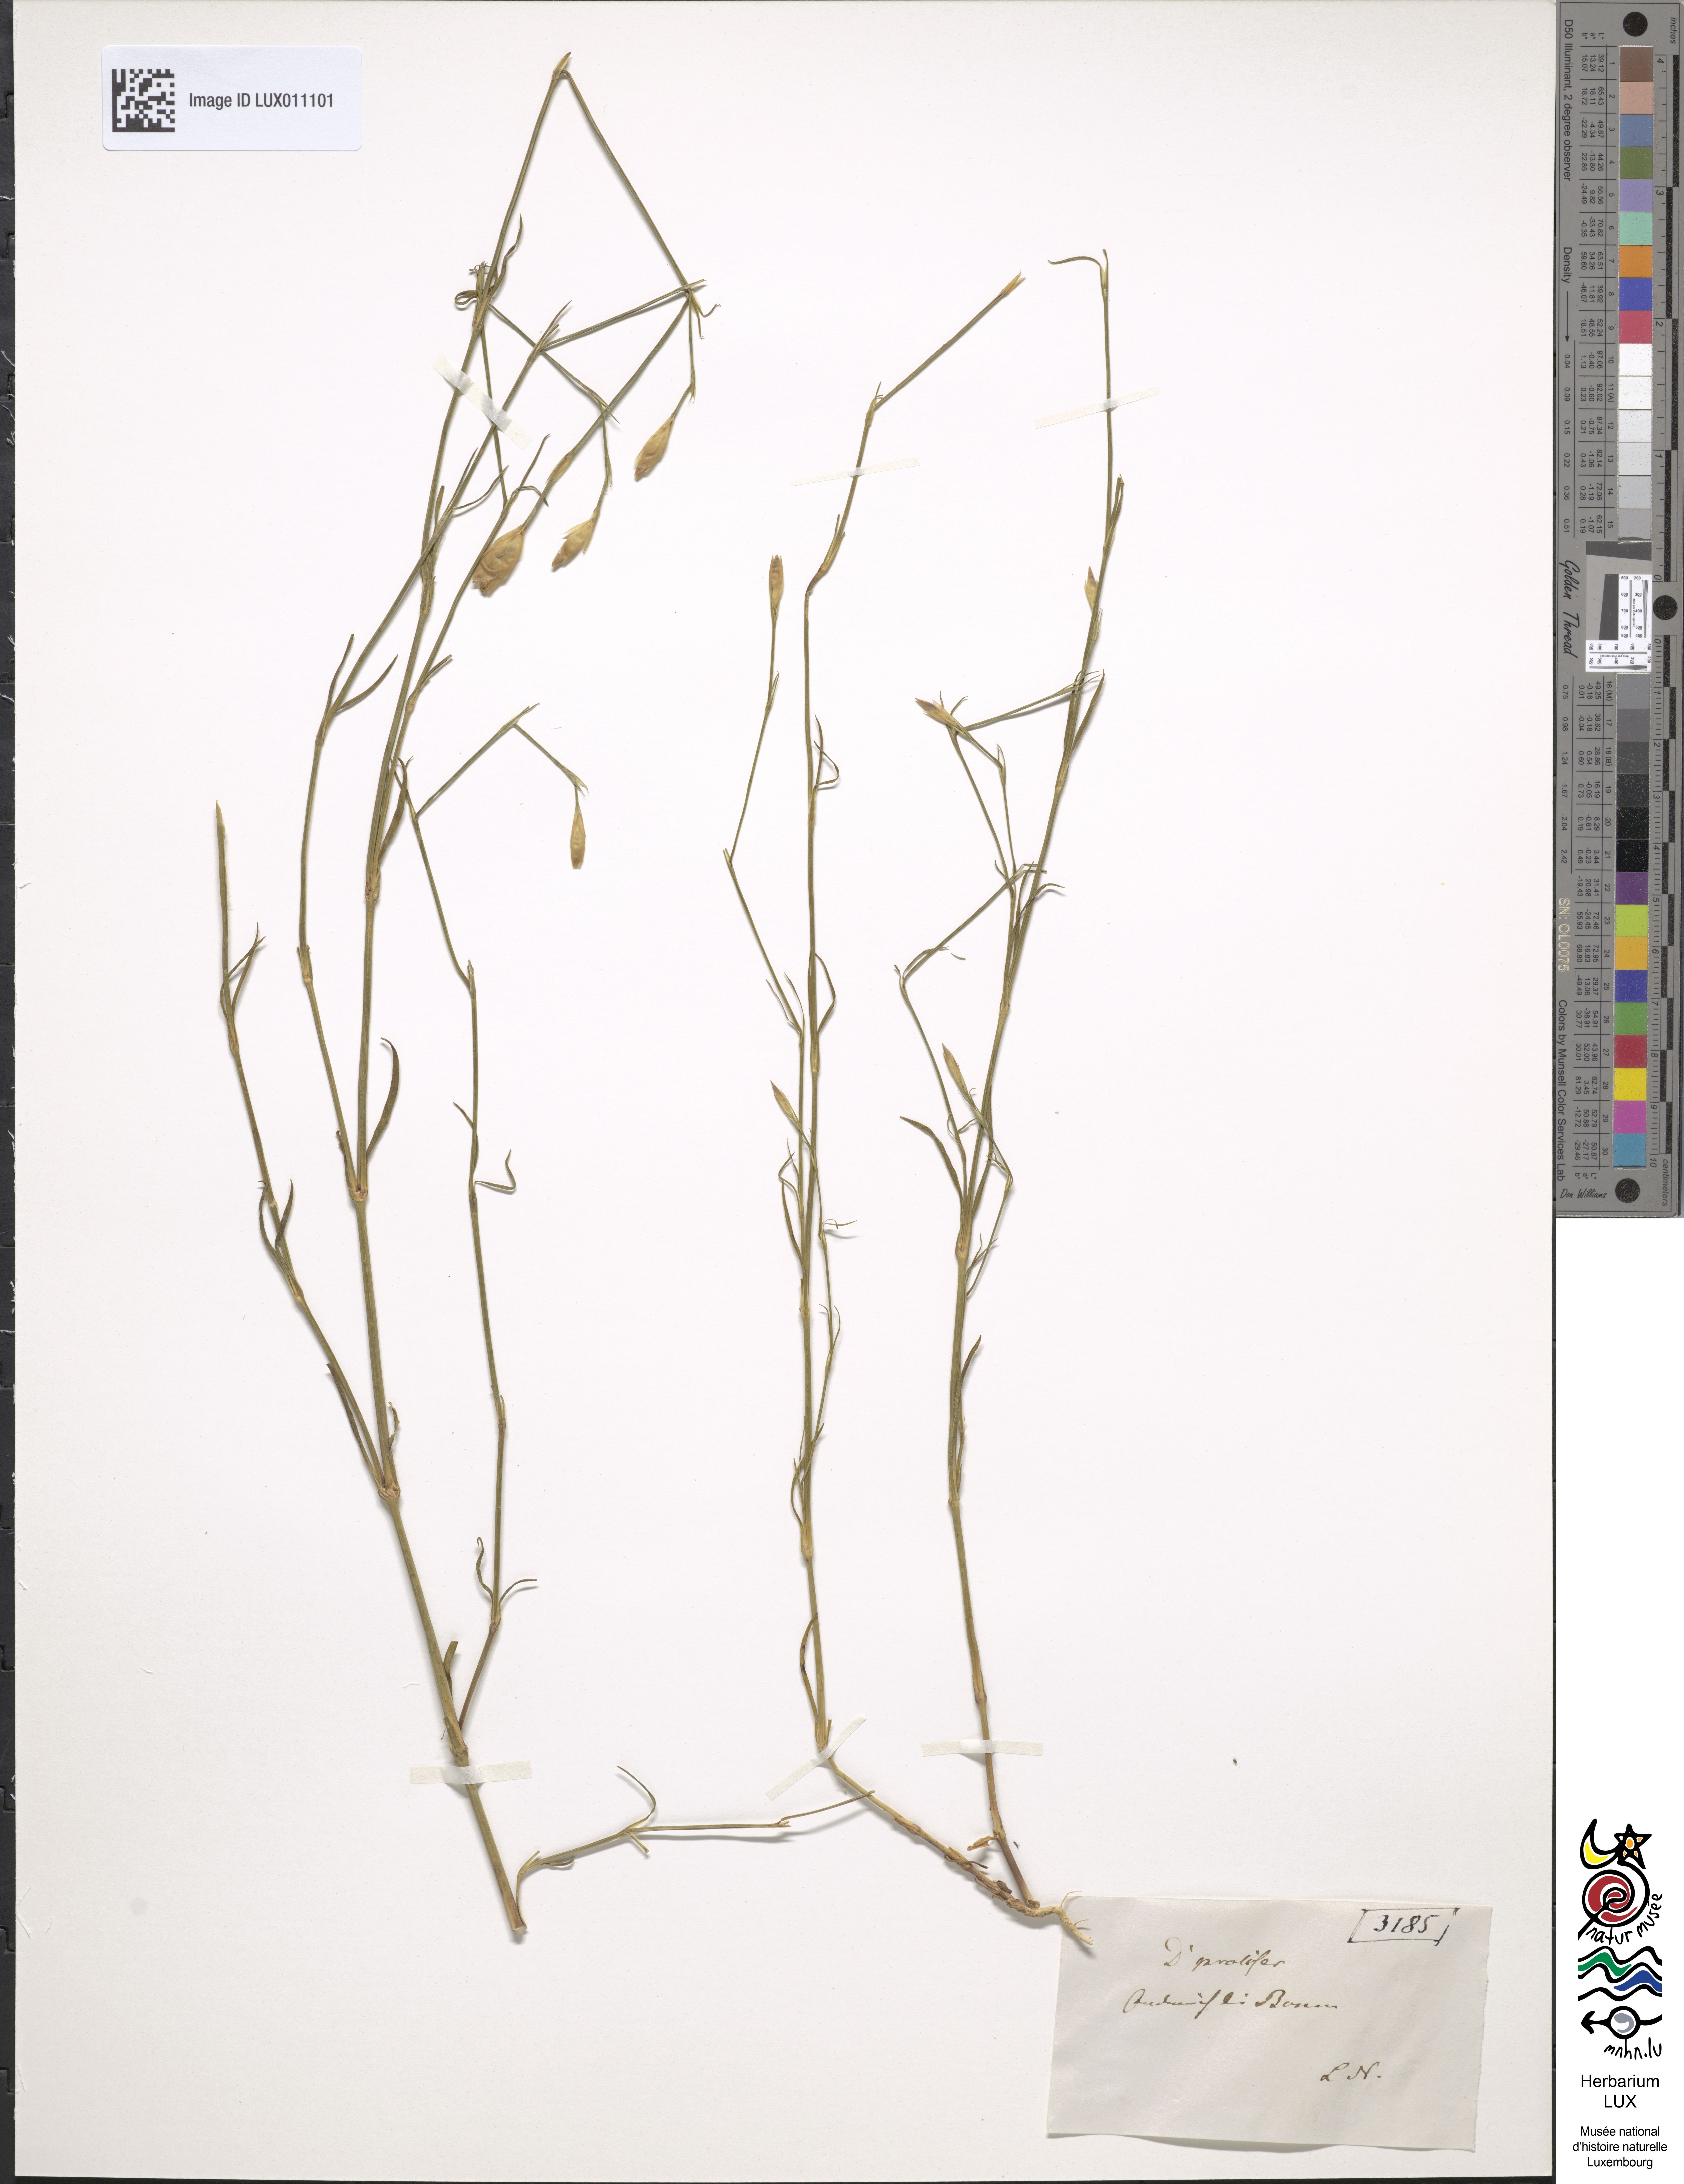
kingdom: Plantae
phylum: Tracheophyta
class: Magnoliopsida
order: Caryophyllales
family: Caryophyllaceae
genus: Petrorhagia
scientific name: Petrorhagia prolifera
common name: Proliferous pink
